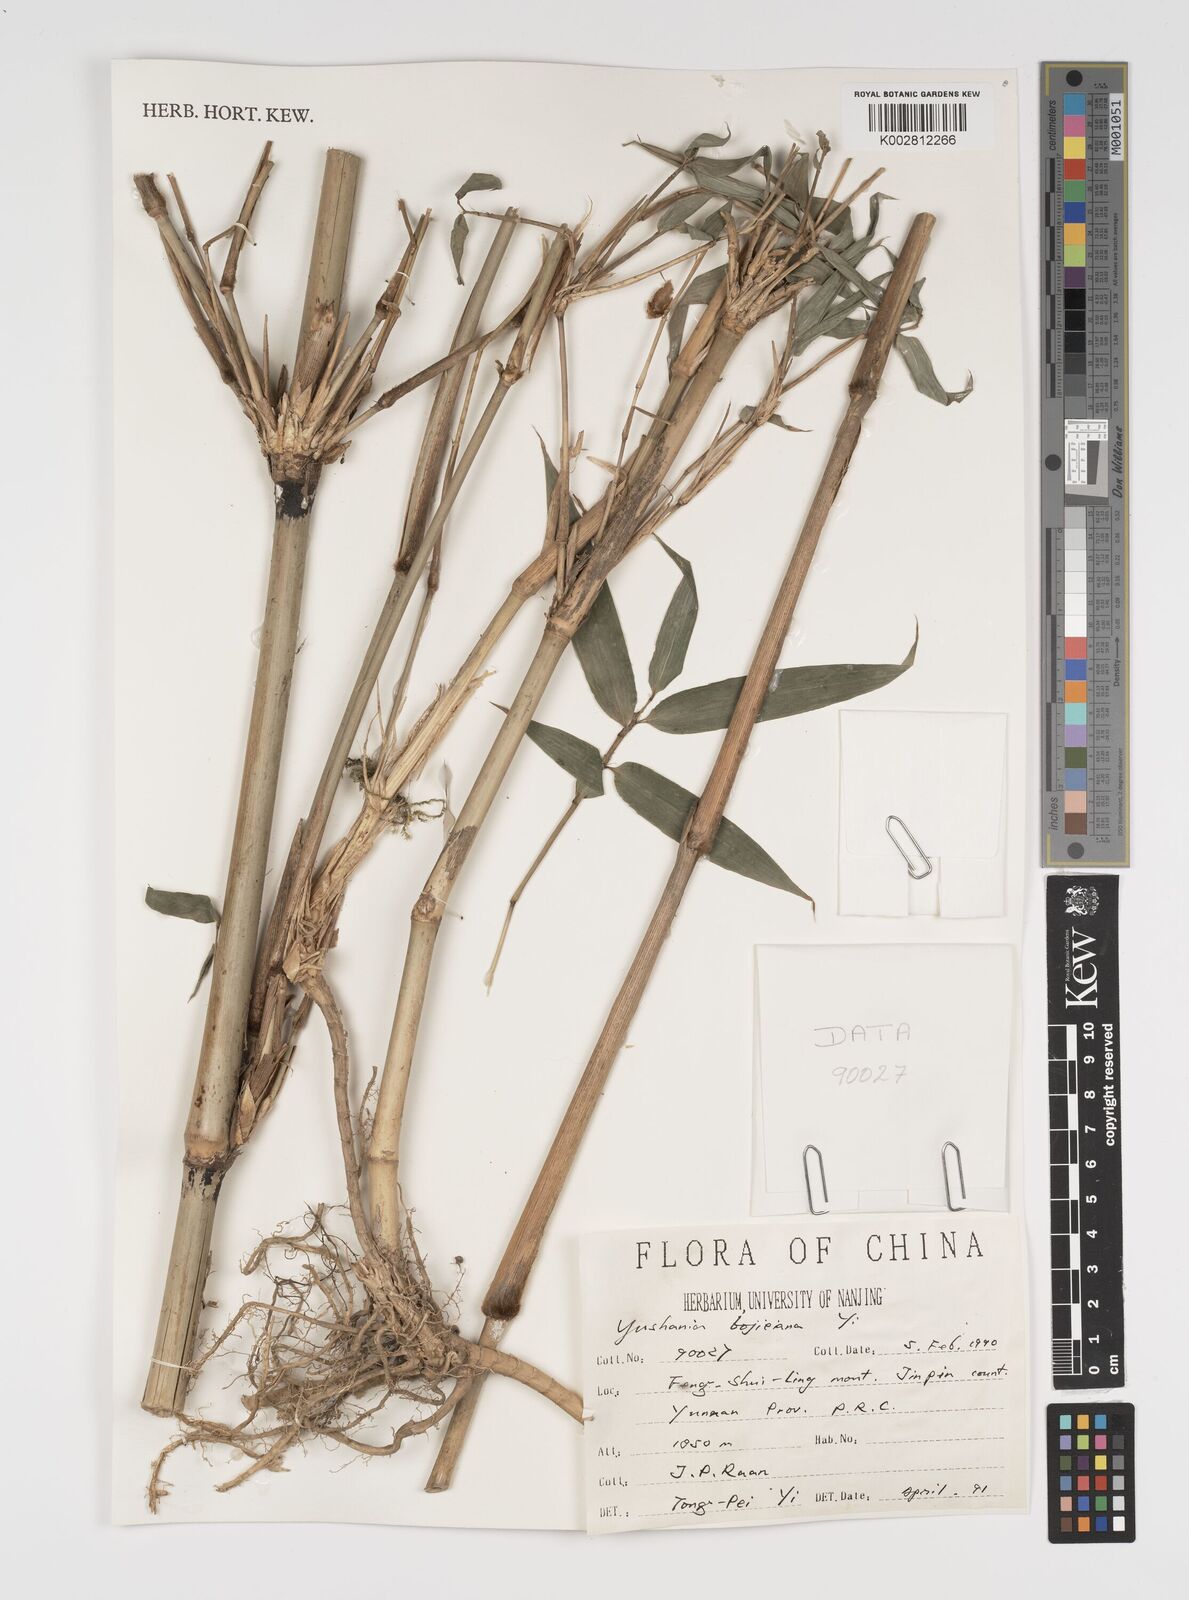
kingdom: Plantae
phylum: Tracheophyta
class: Liliopsida
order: Poales
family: Poaceae
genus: Yushania
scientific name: Yushania bojieiana
